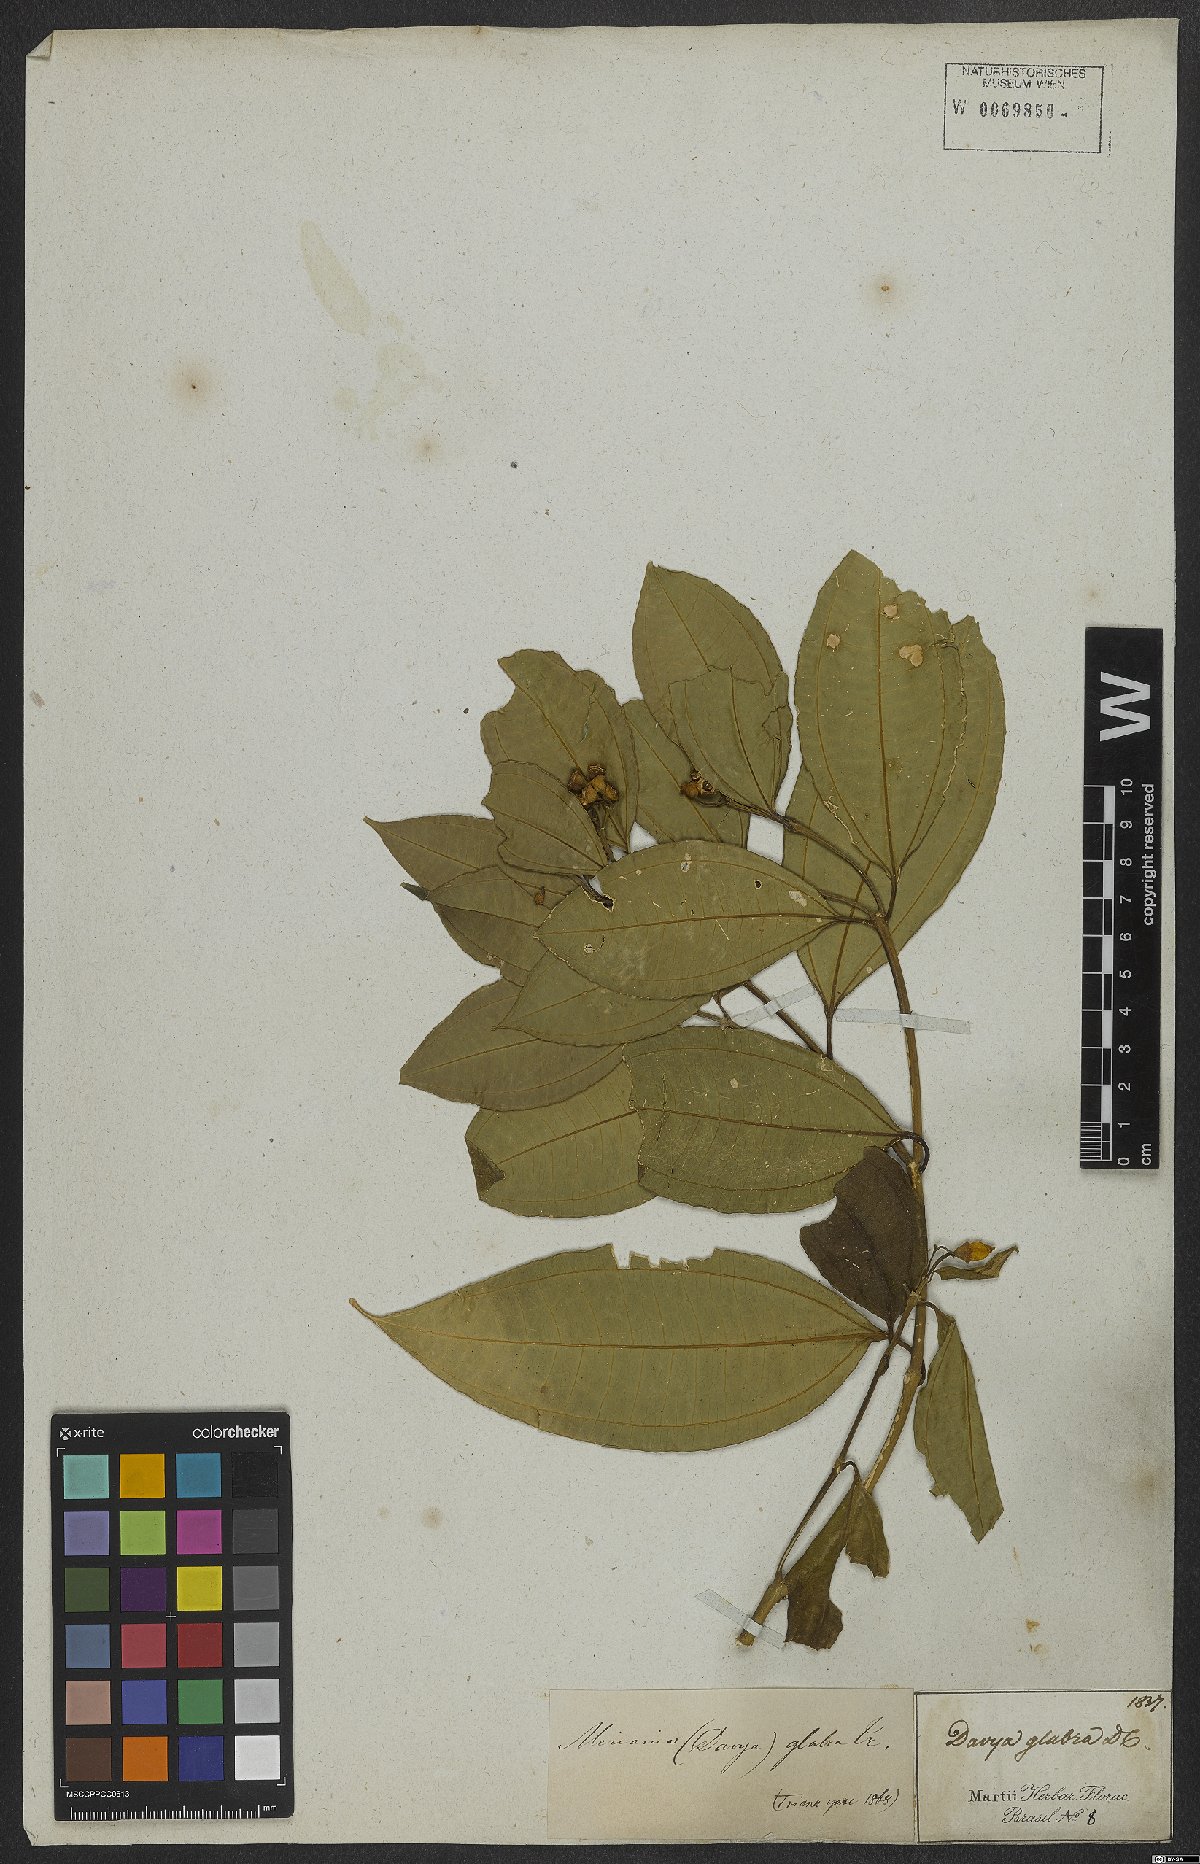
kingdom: Plantae
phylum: Tracheophyta
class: Magnoliopsida
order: Myrtales
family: Melastomataceae
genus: Meriania
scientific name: Meriania glabra
